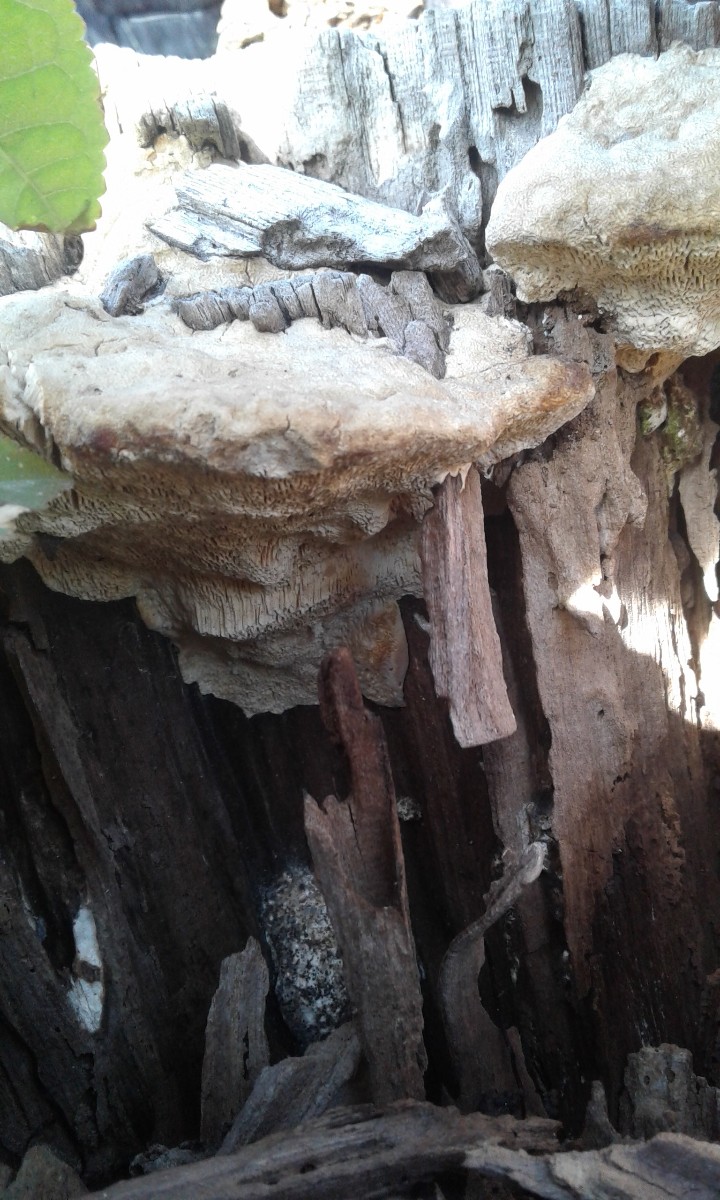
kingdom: Fungi
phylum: Basidiomycota
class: Agaricomycetes
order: Polyporales
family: Polyporaceae
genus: Trametes
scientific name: Trametes gibbosa
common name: puklet læderporesvamp
